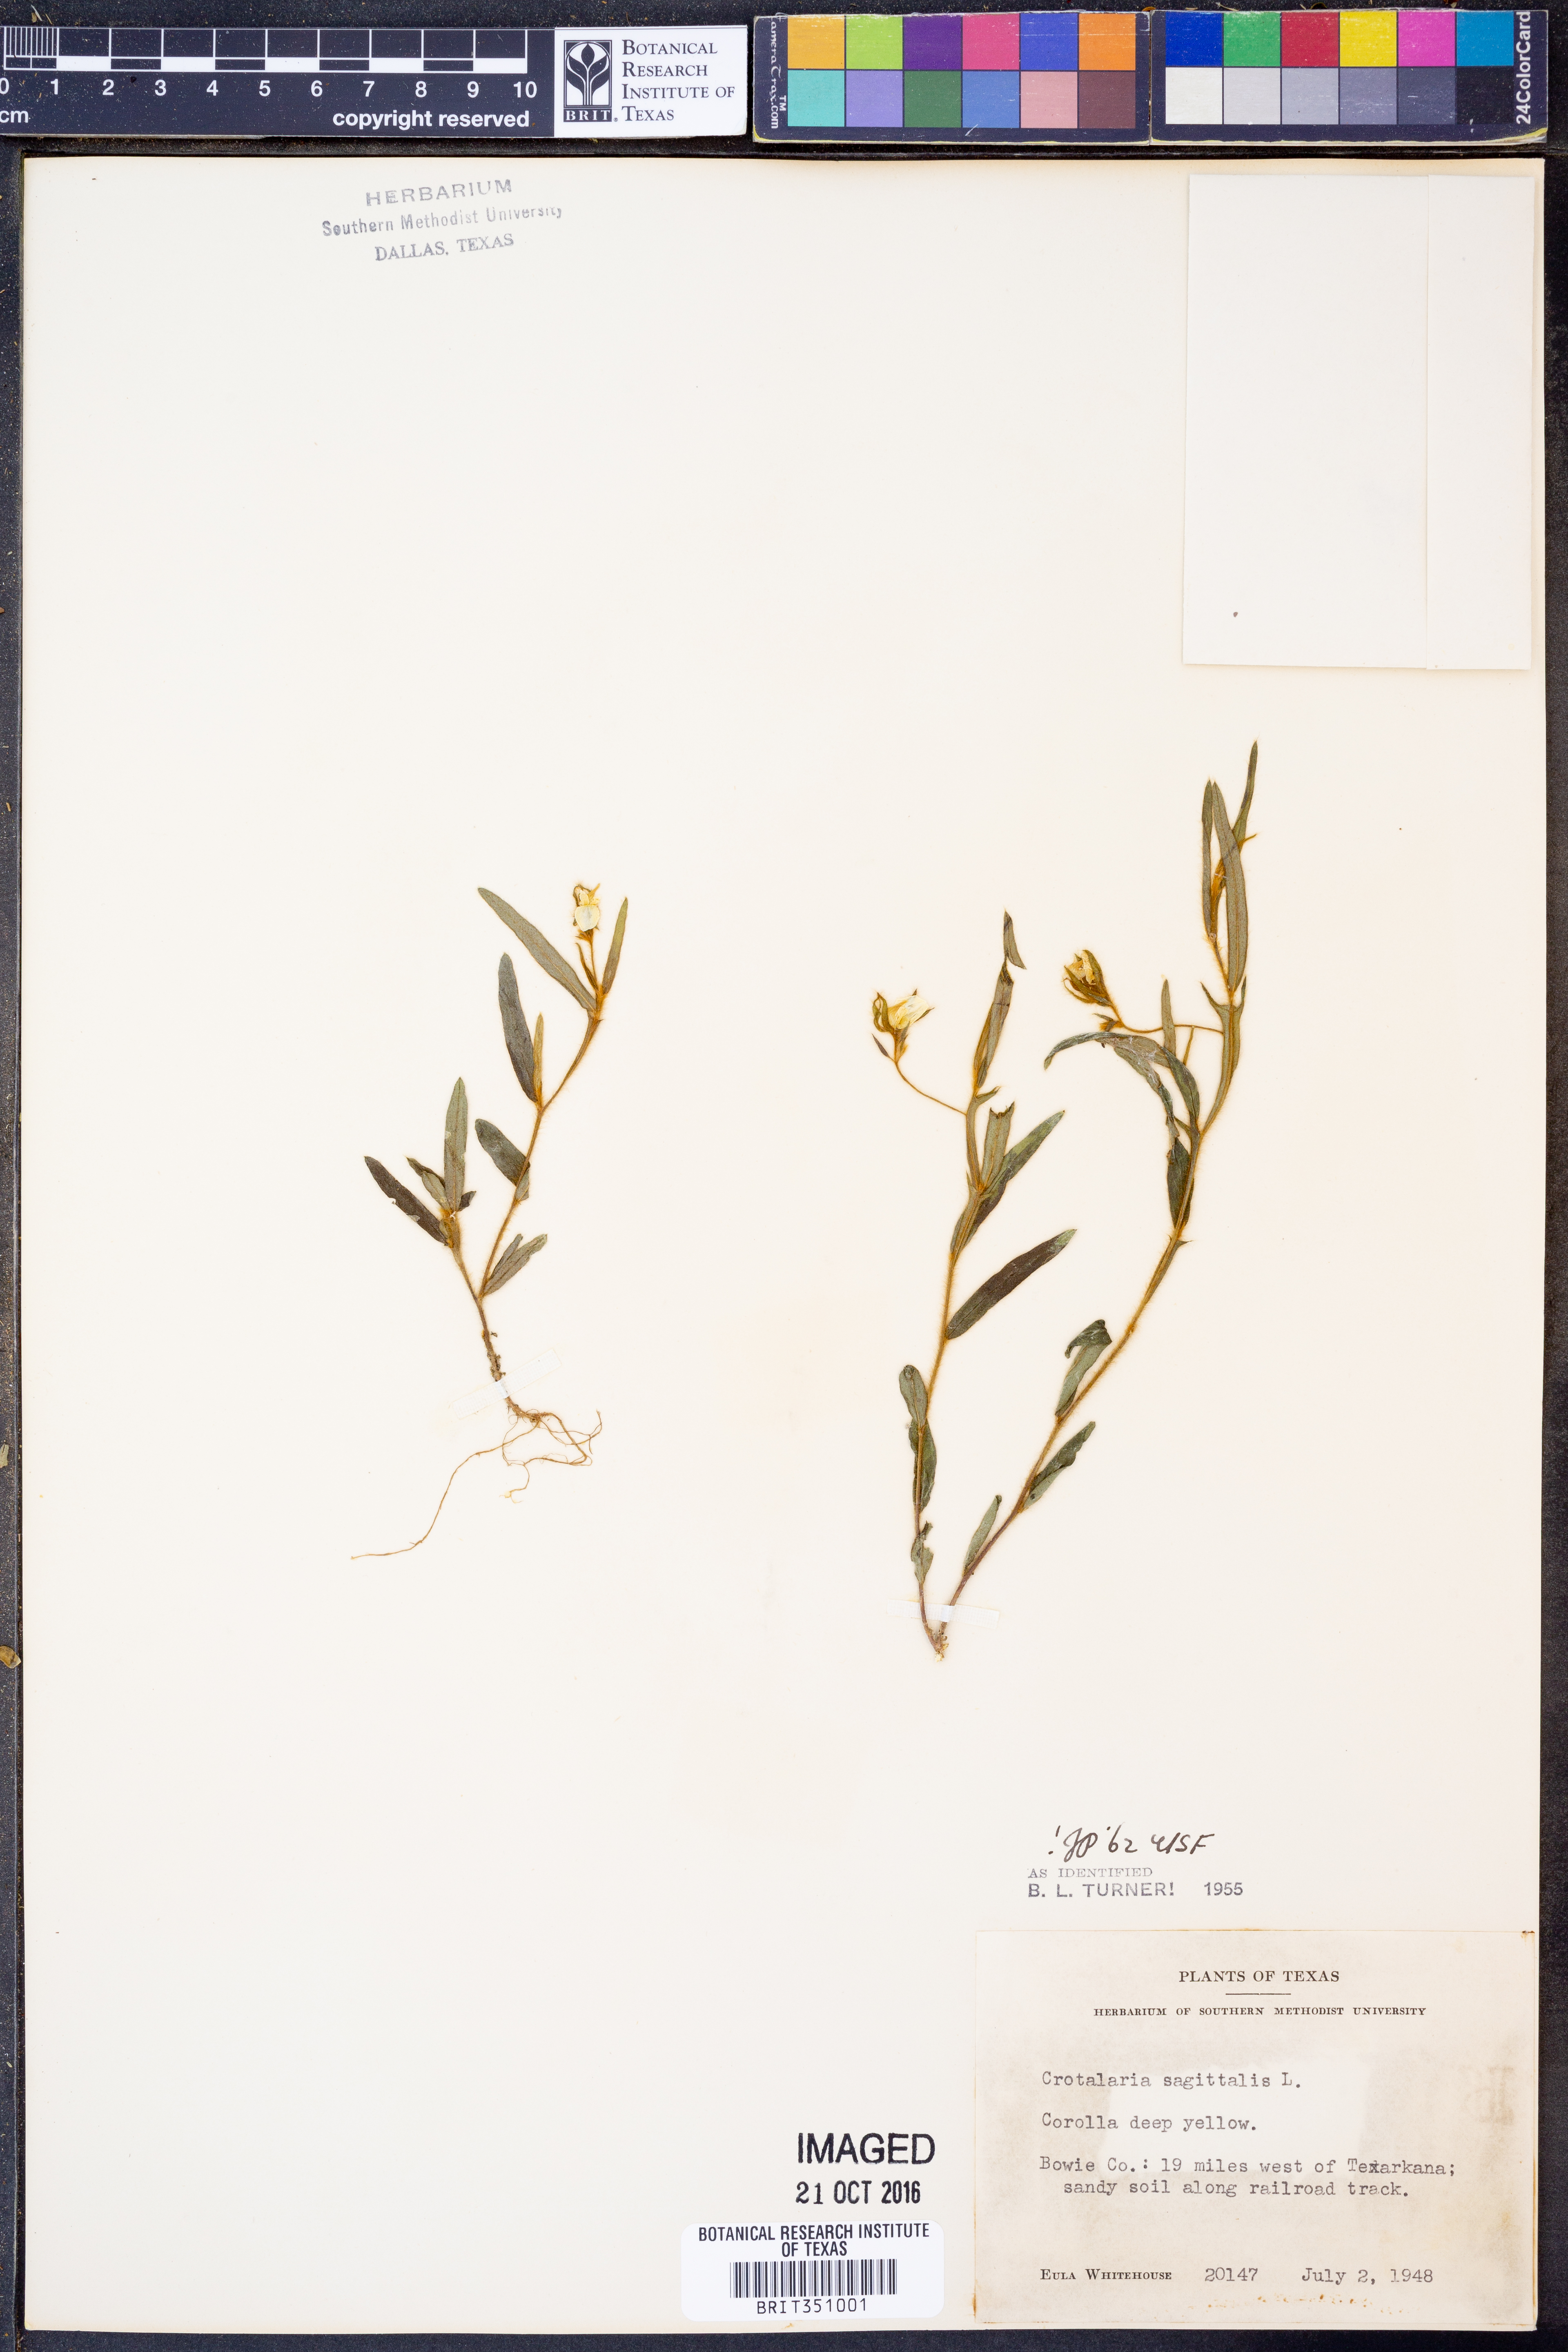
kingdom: Plantae
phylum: Tracheophyta
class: Magnoliopsida
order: Fabales
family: Fabaceae
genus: Crotalaria
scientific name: Crotalaria sagittalis
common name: Arrowhead rattlebox
